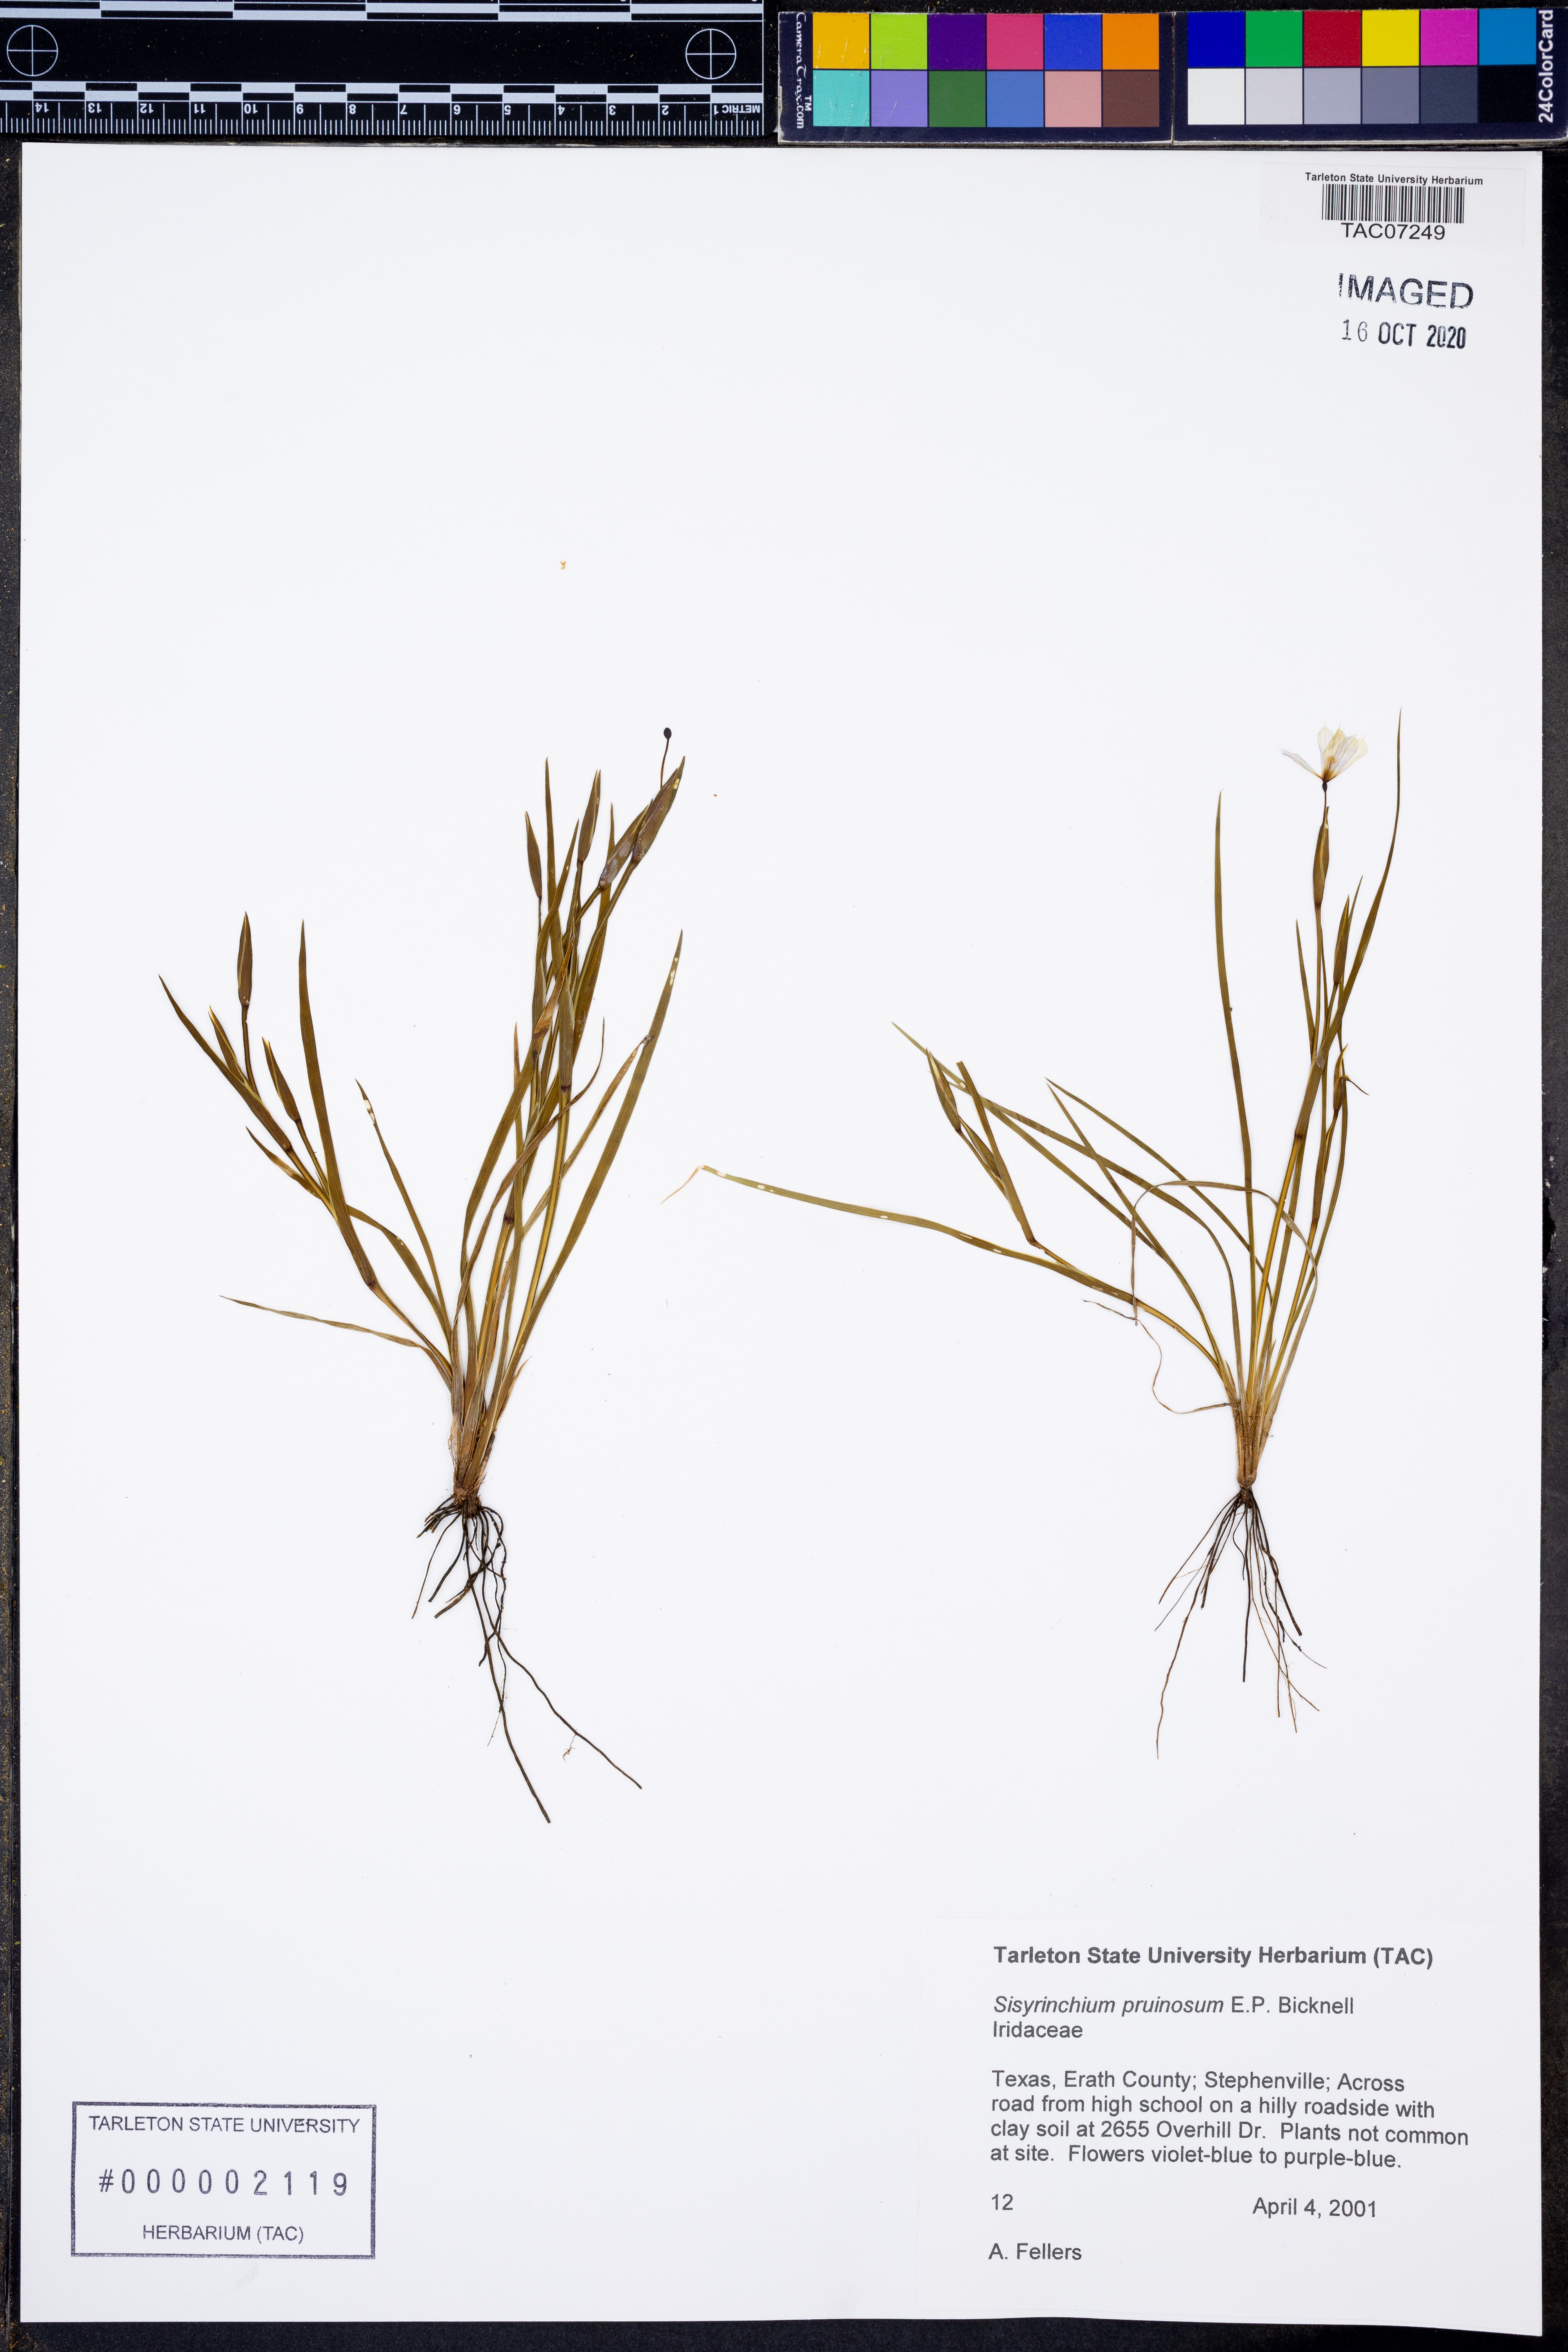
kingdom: Plantae
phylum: Tracheophyta
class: Liliopsida
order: Asparagales
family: Iridaceae
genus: Sisyrinchium
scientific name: Sisyrinchium pruinosum
